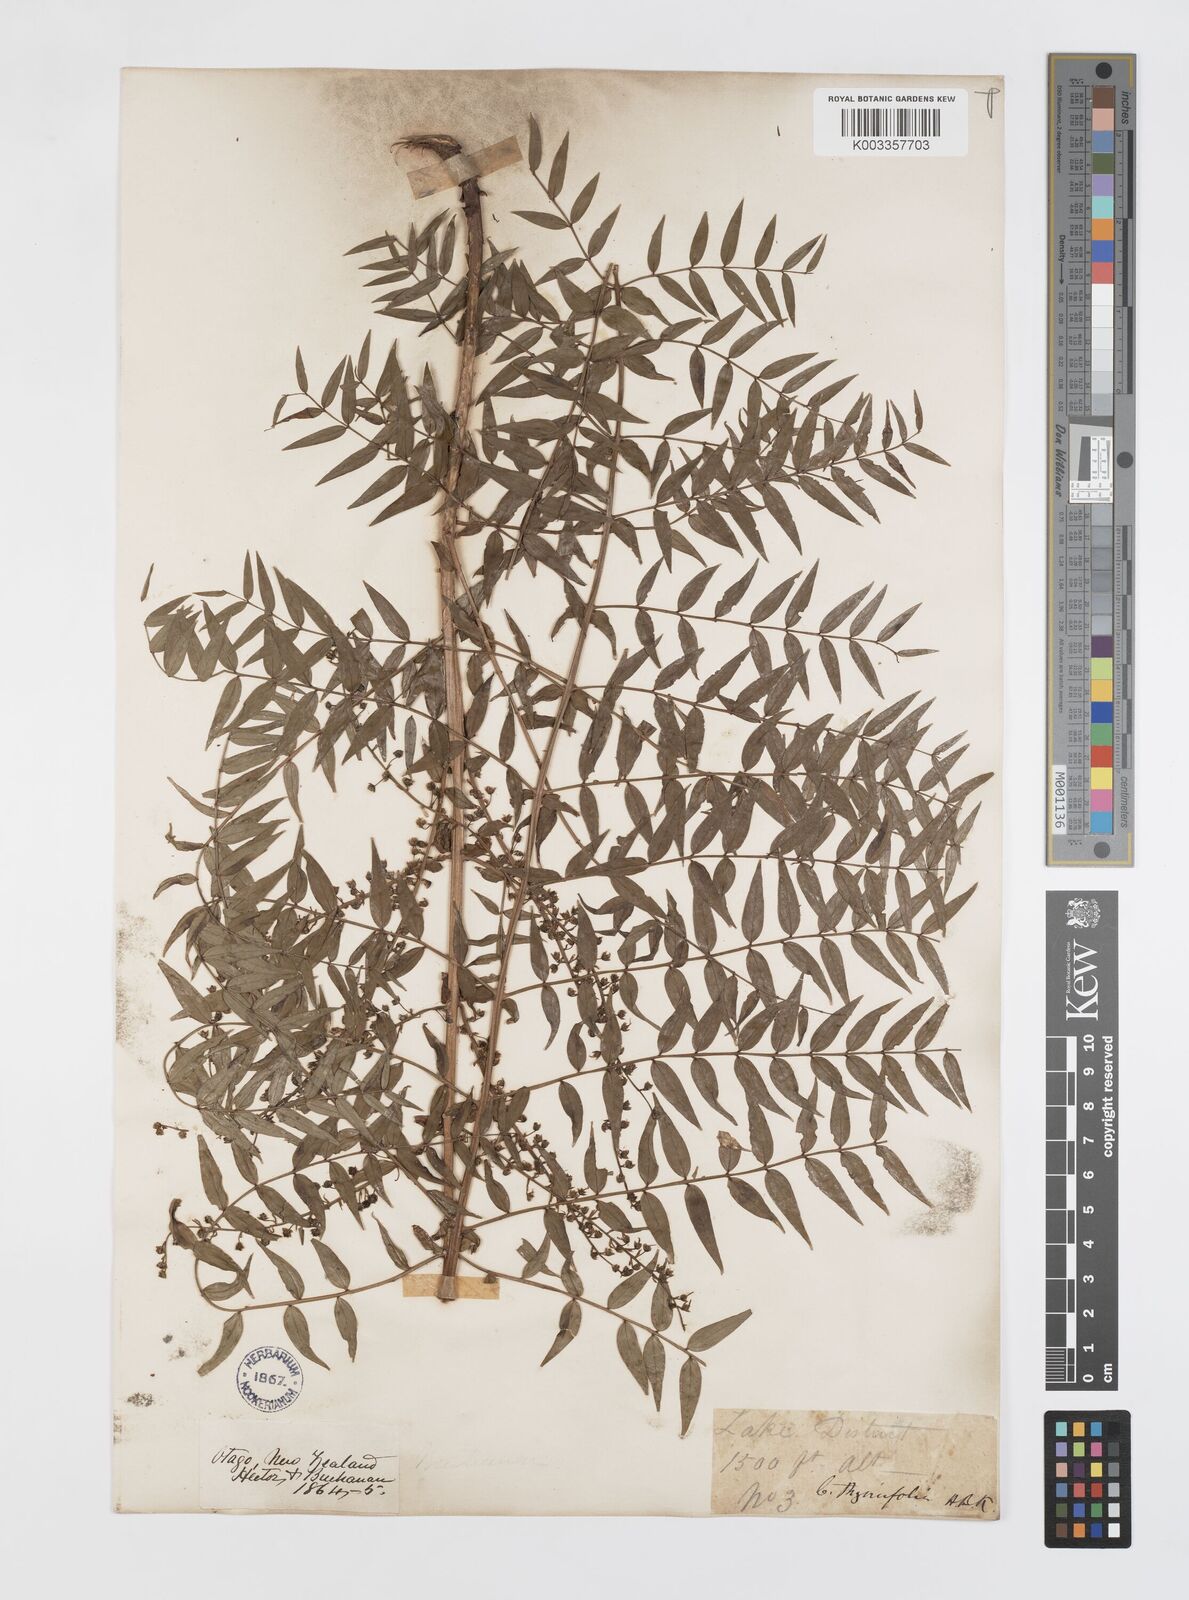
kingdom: Plantae
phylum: Tracheophyta
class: Magnoliopsida
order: Cucurbitales
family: Coriariaceae
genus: Coriaria
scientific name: Coriaria lurida
